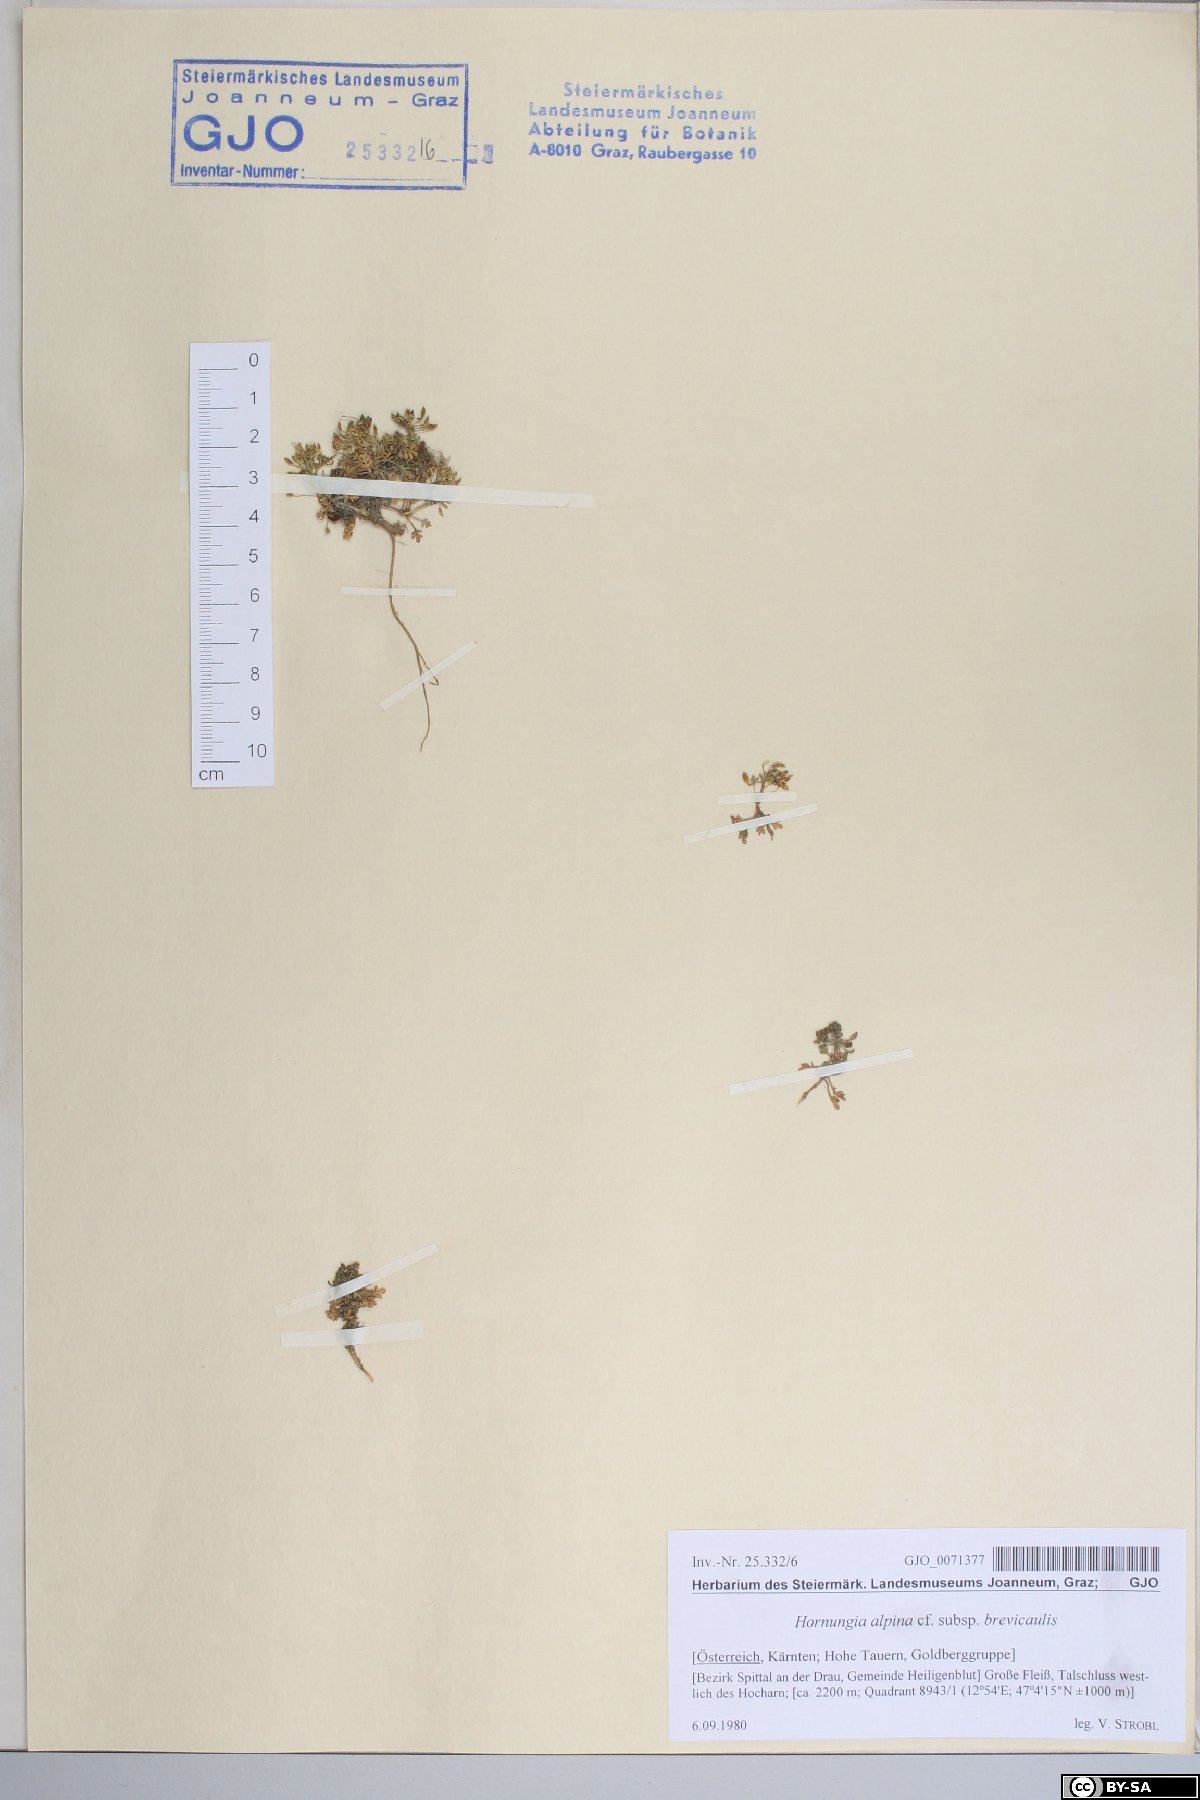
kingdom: Plantae
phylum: Tracheophyta
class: Magnoliopsida
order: Brassicales
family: Brassicaceae
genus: Hornungia
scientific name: Hornungia alpina
